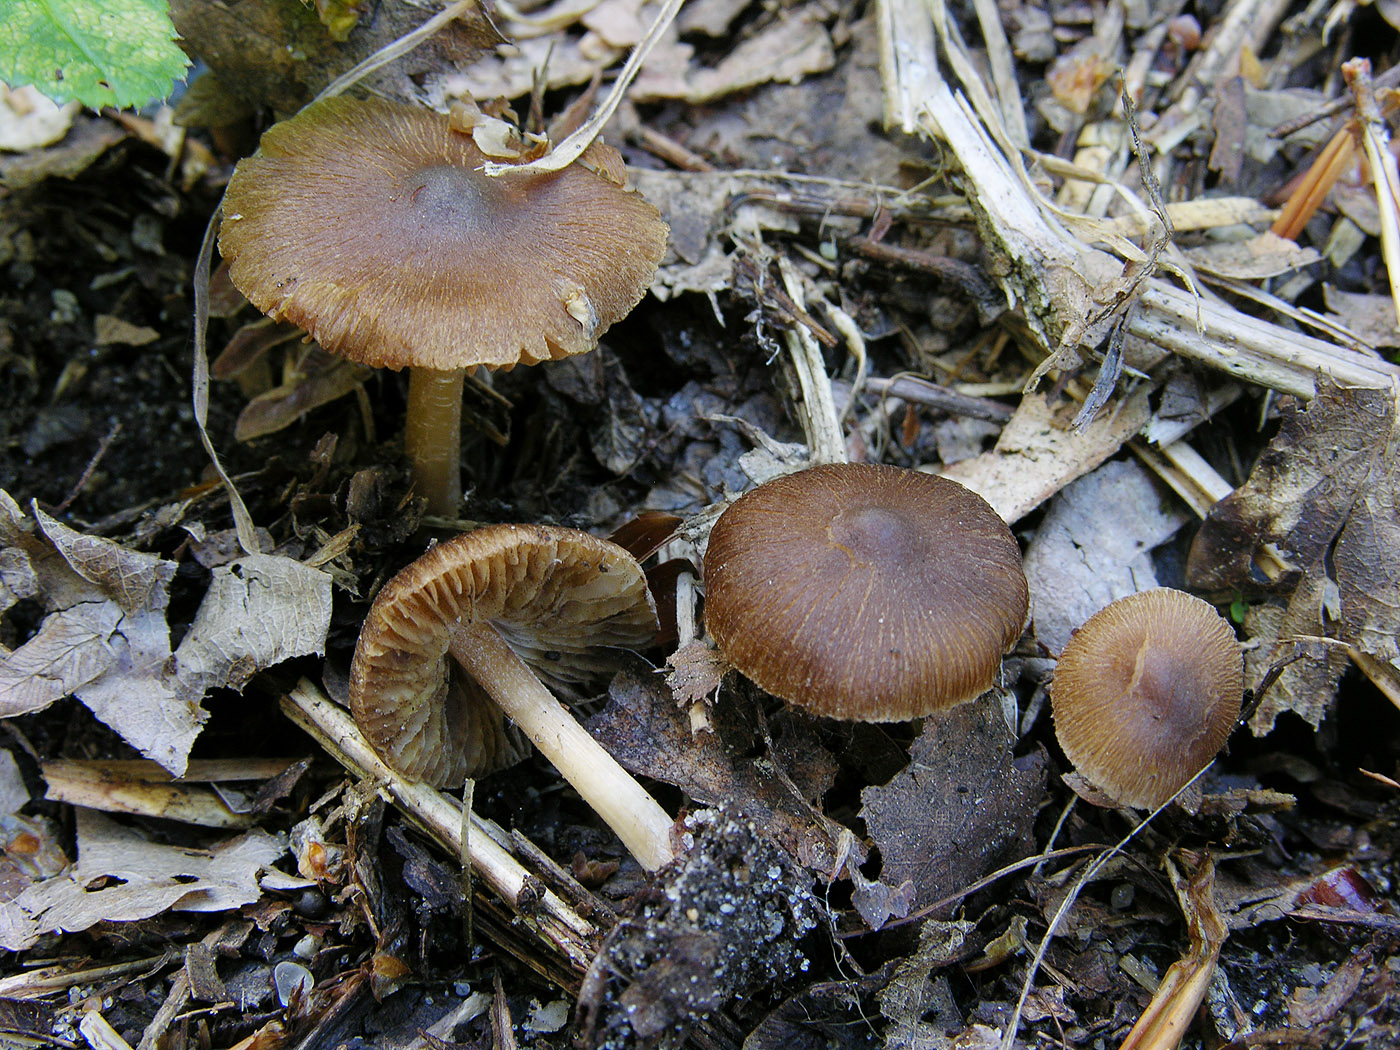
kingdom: Fungi
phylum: Basidiomycota
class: Agaricomycetes
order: Agaricales
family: Inocybaceae
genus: Inocybe
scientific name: Inocybe pelargonium
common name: pelargonie-trævlhat
